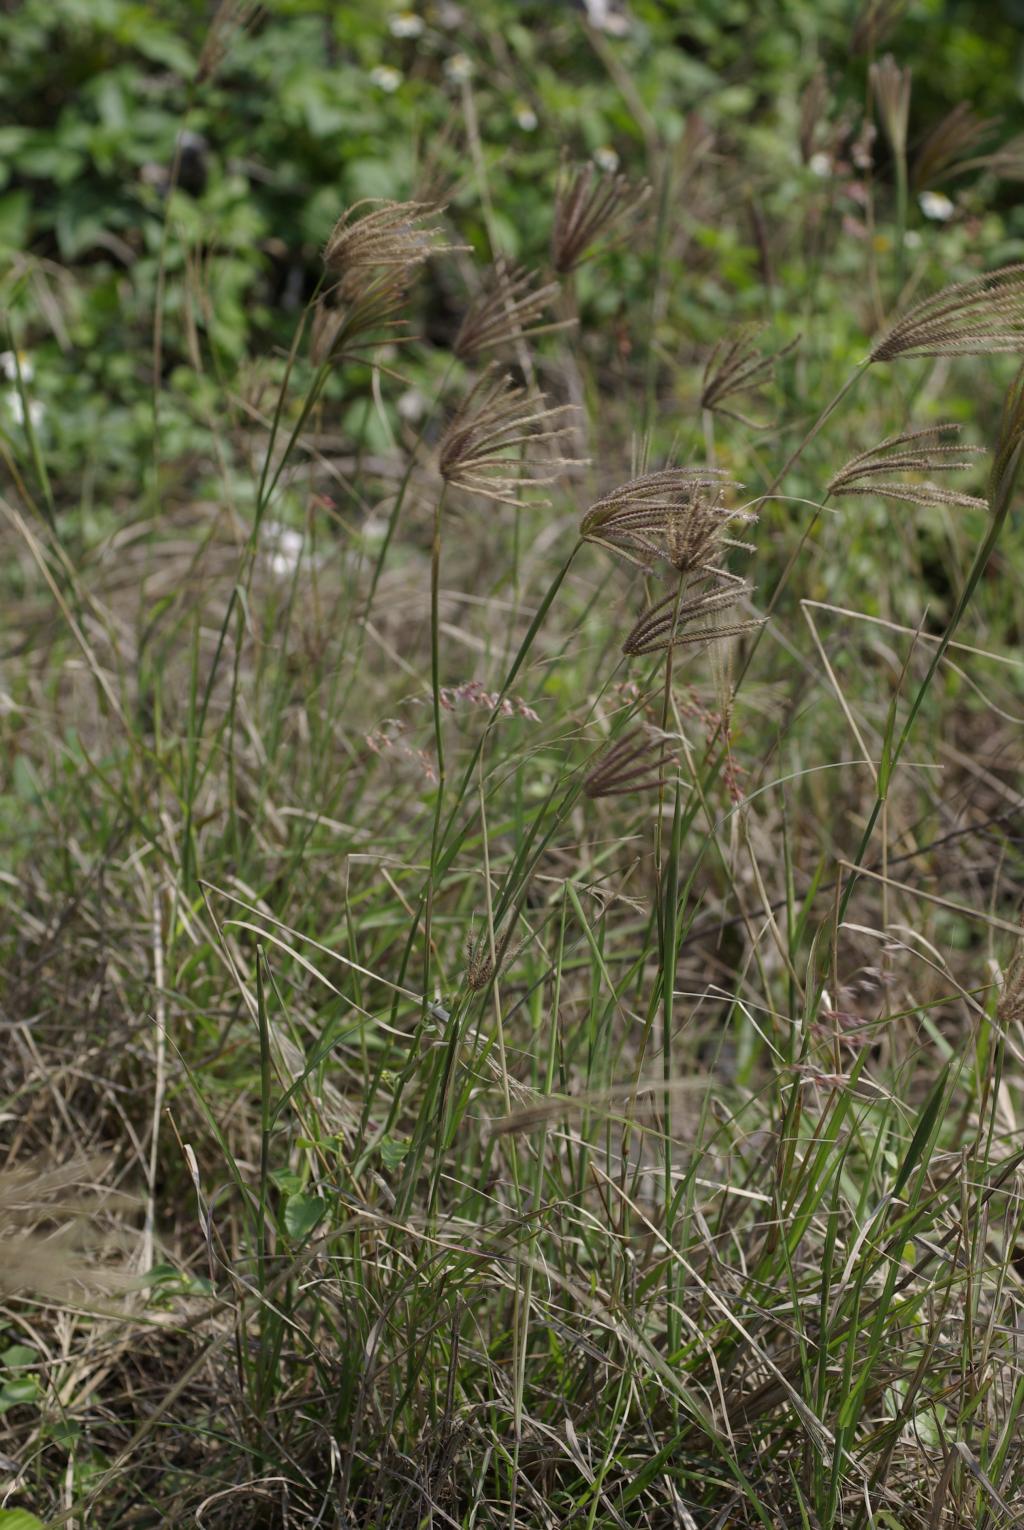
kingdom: Plantae
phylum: Tracheophyta
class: Liliopsida
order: Poales
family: Poaceae
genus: Chloris
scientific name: Chloris barbata
